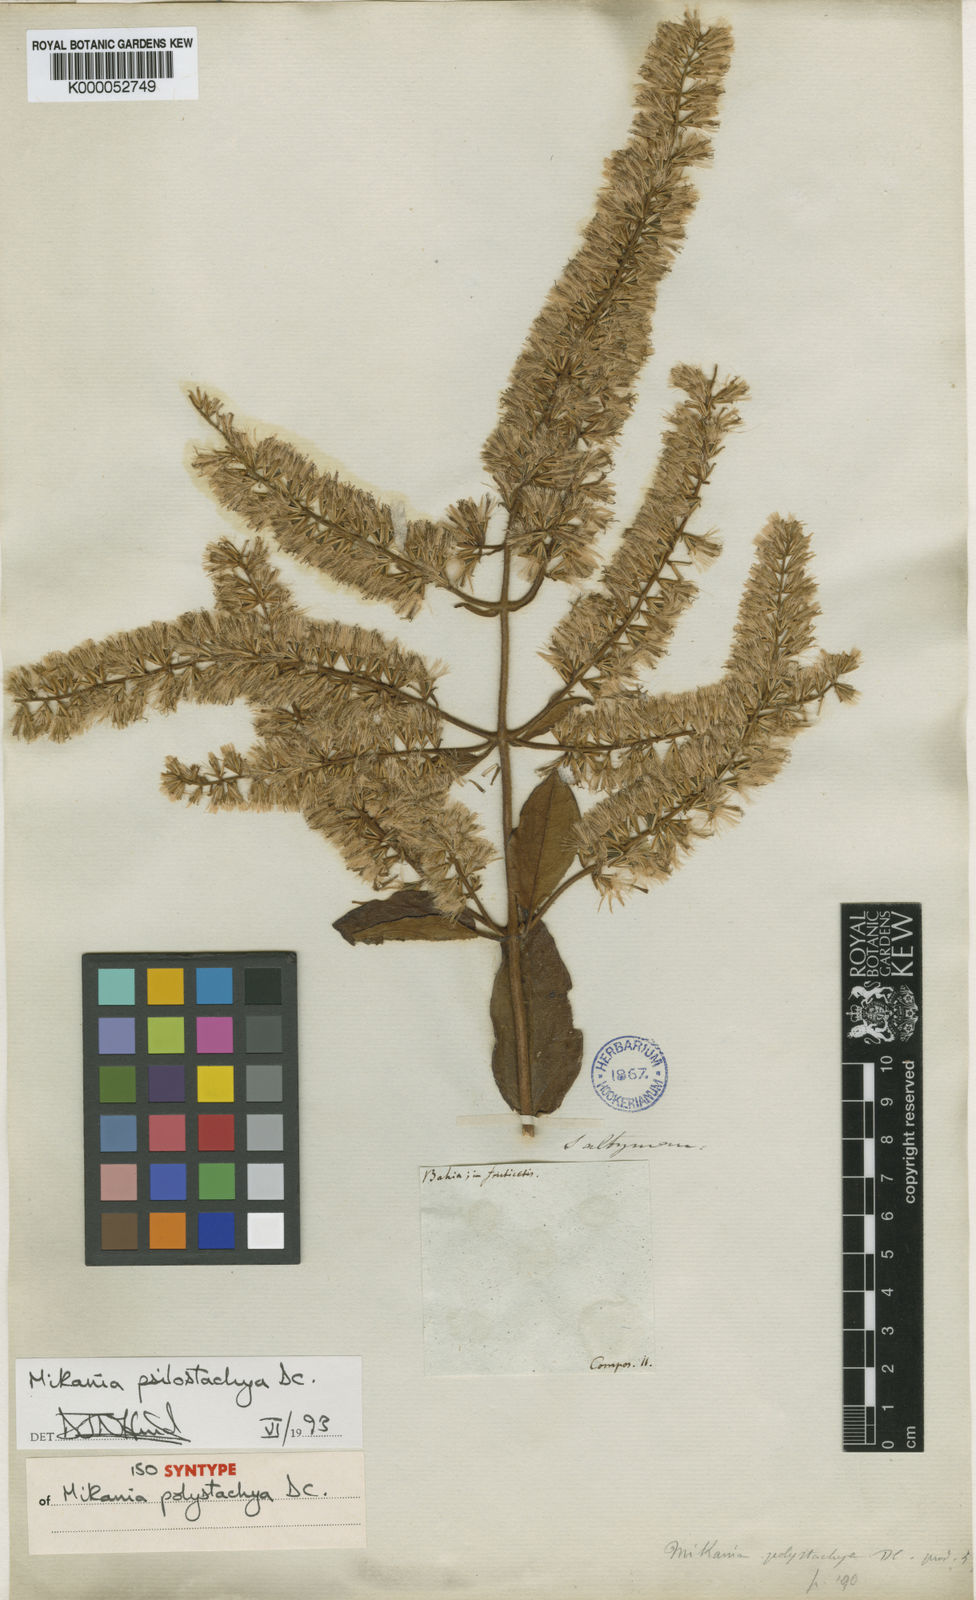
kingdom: Plantae
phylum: Tracheophyta
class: Magnoliopsida
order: Asterales
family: Asteraceae
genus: Mikania
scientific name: Mikania psilostachya
